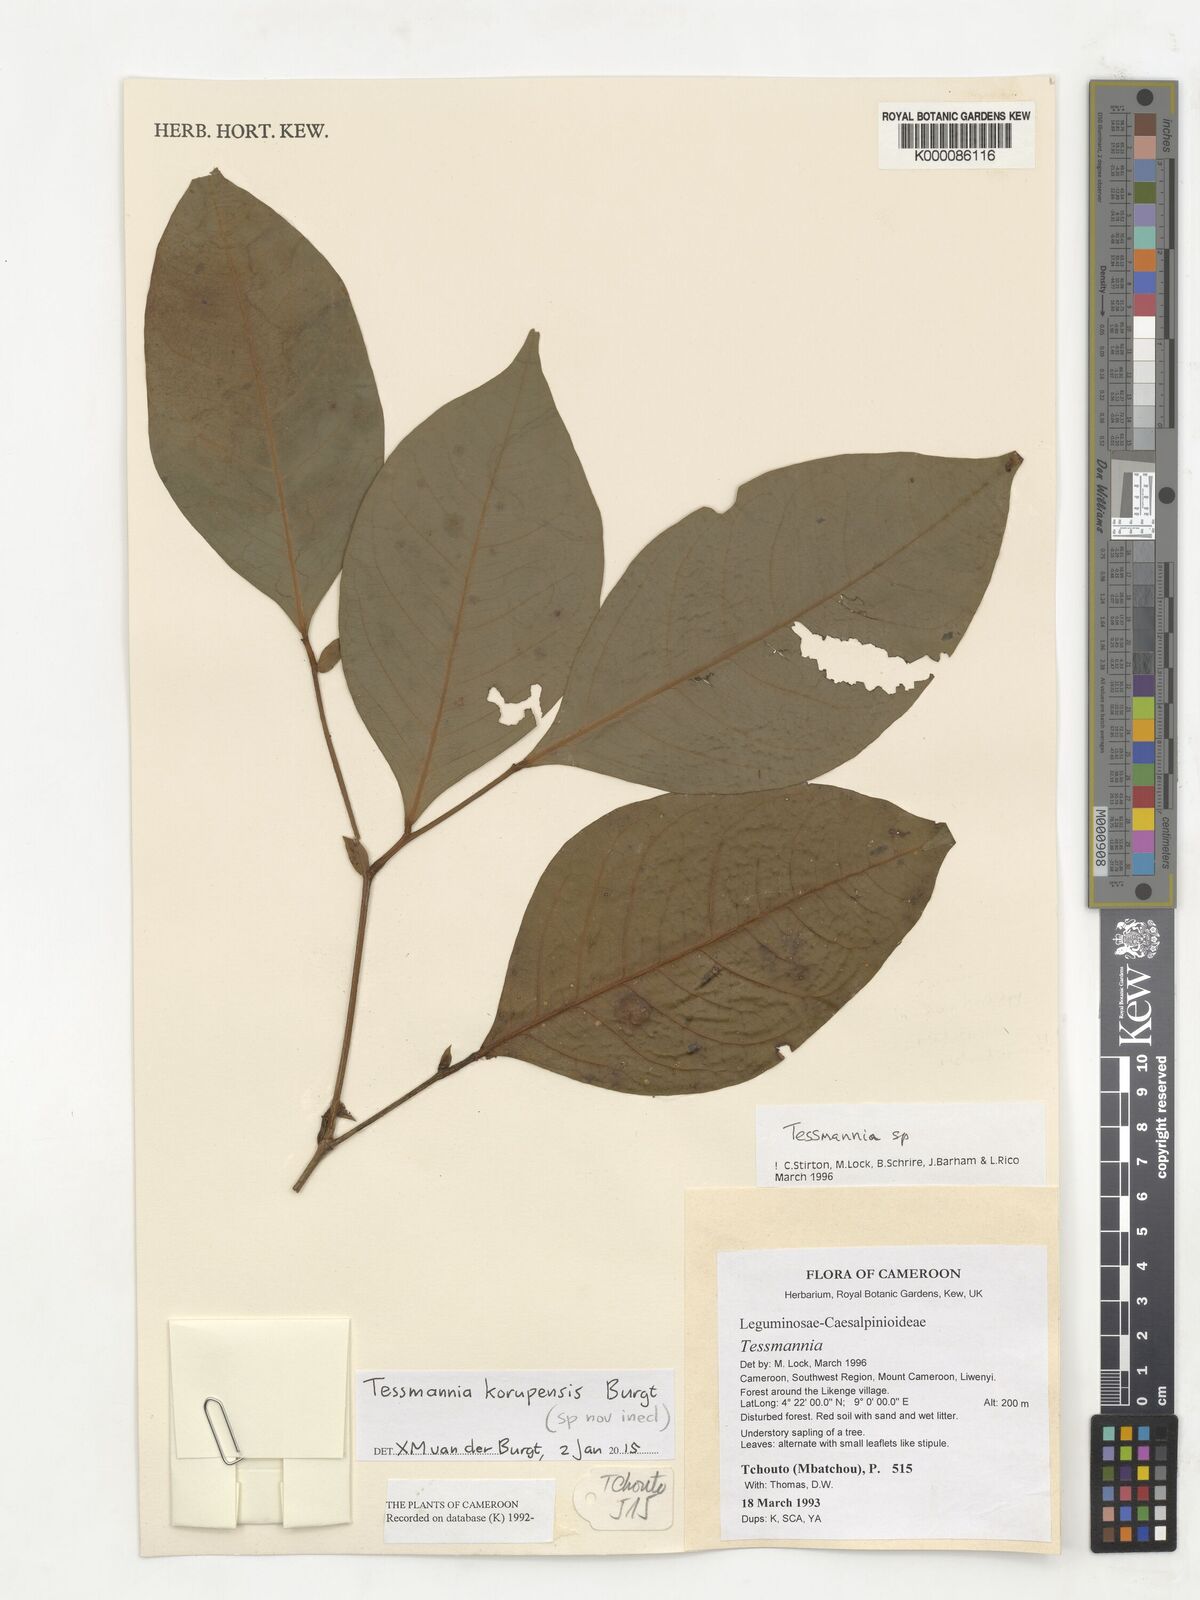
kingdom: Plantae
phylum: Tracheophyta
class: Magnoliopsida
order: Fabales
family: Fabaceae
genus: Tessmannia
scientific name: Tessmannia
